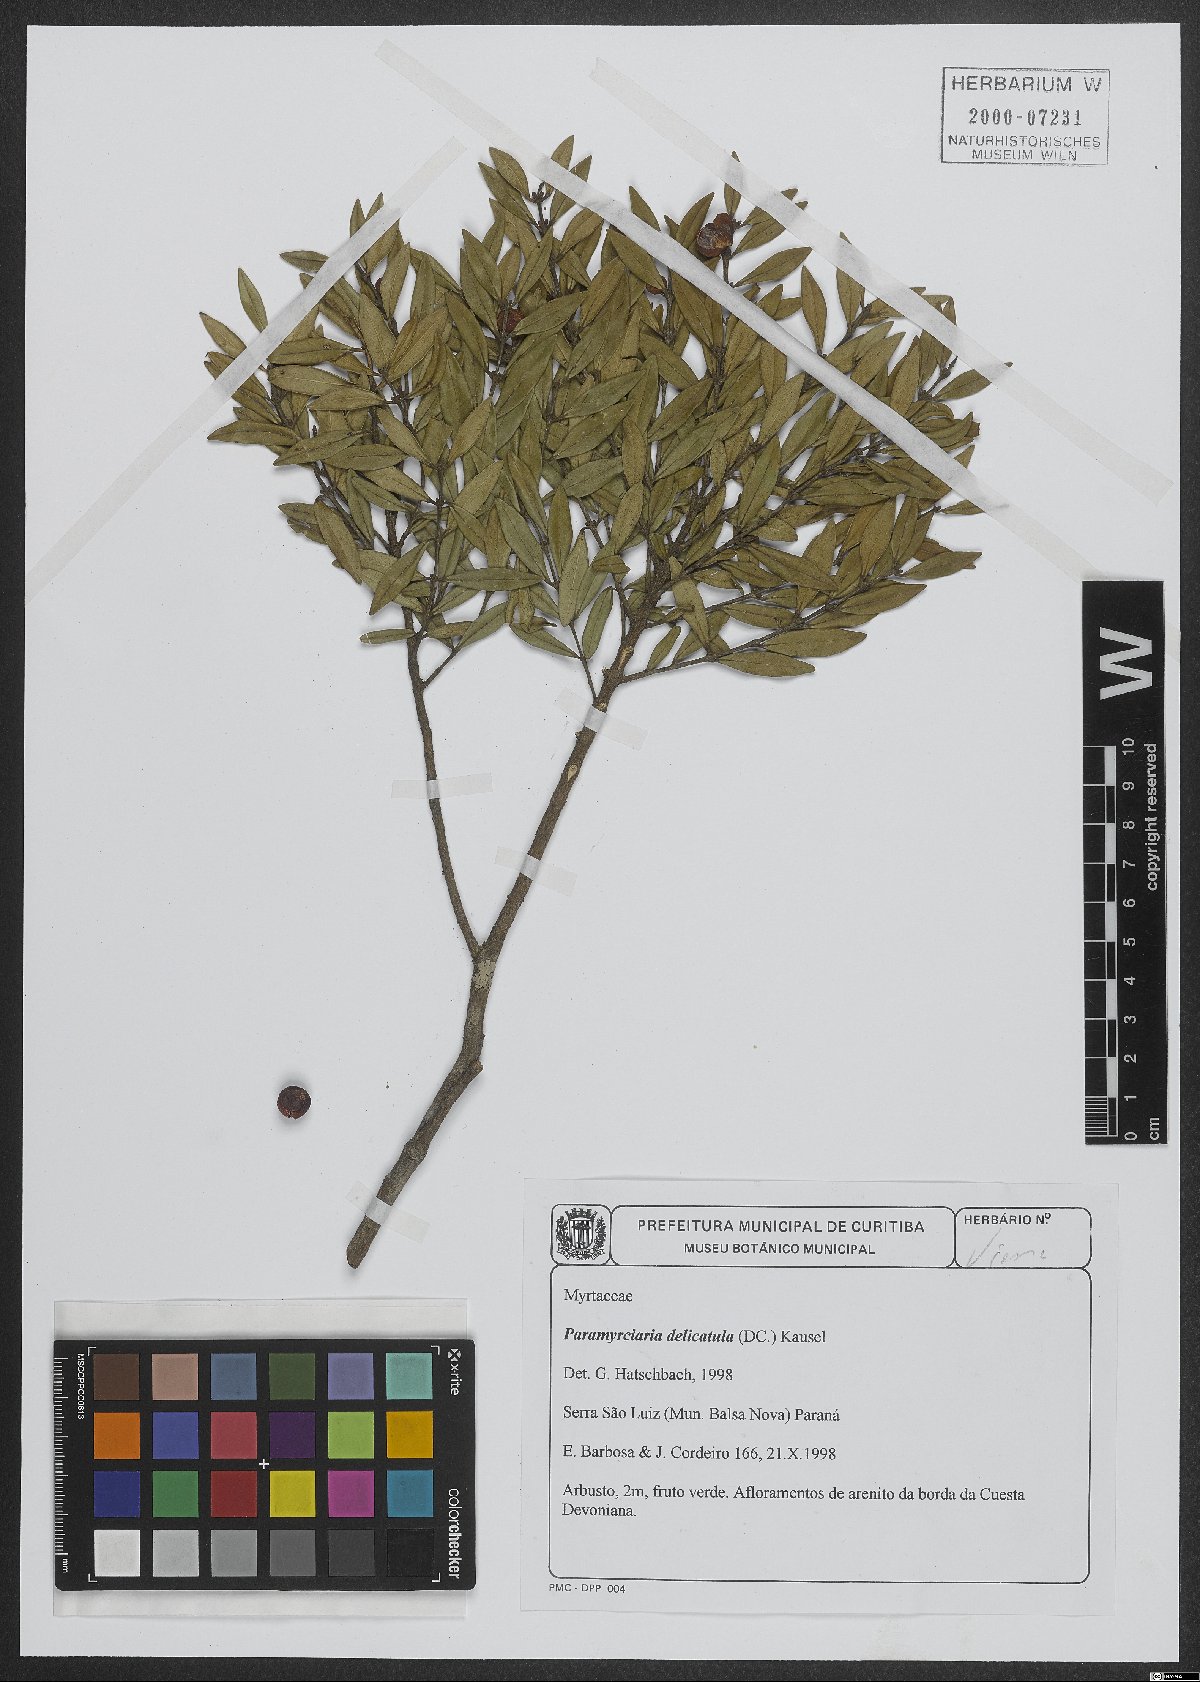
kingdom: Plantae
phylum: Tracheophyta
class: Magnoliopsida
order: Myrtales
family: Myrtaceae
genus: Myrciaria
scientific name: Myrciaria delicatula
